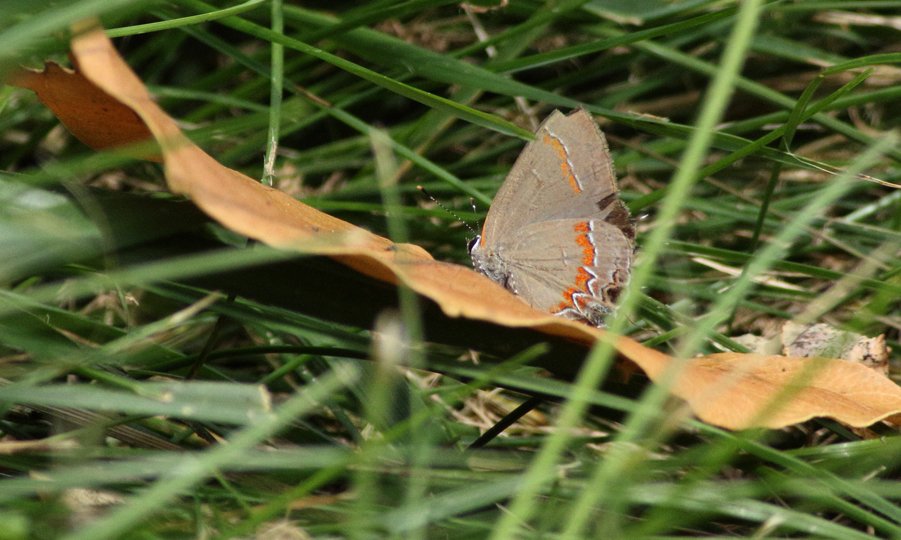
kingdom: Animalia
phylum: Arthropoda
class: Insecta
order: Lepidoptera
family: Lycaenidae
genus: Calycopis
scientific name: Calycopis cecrops
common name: Red-banded Hairstreak
